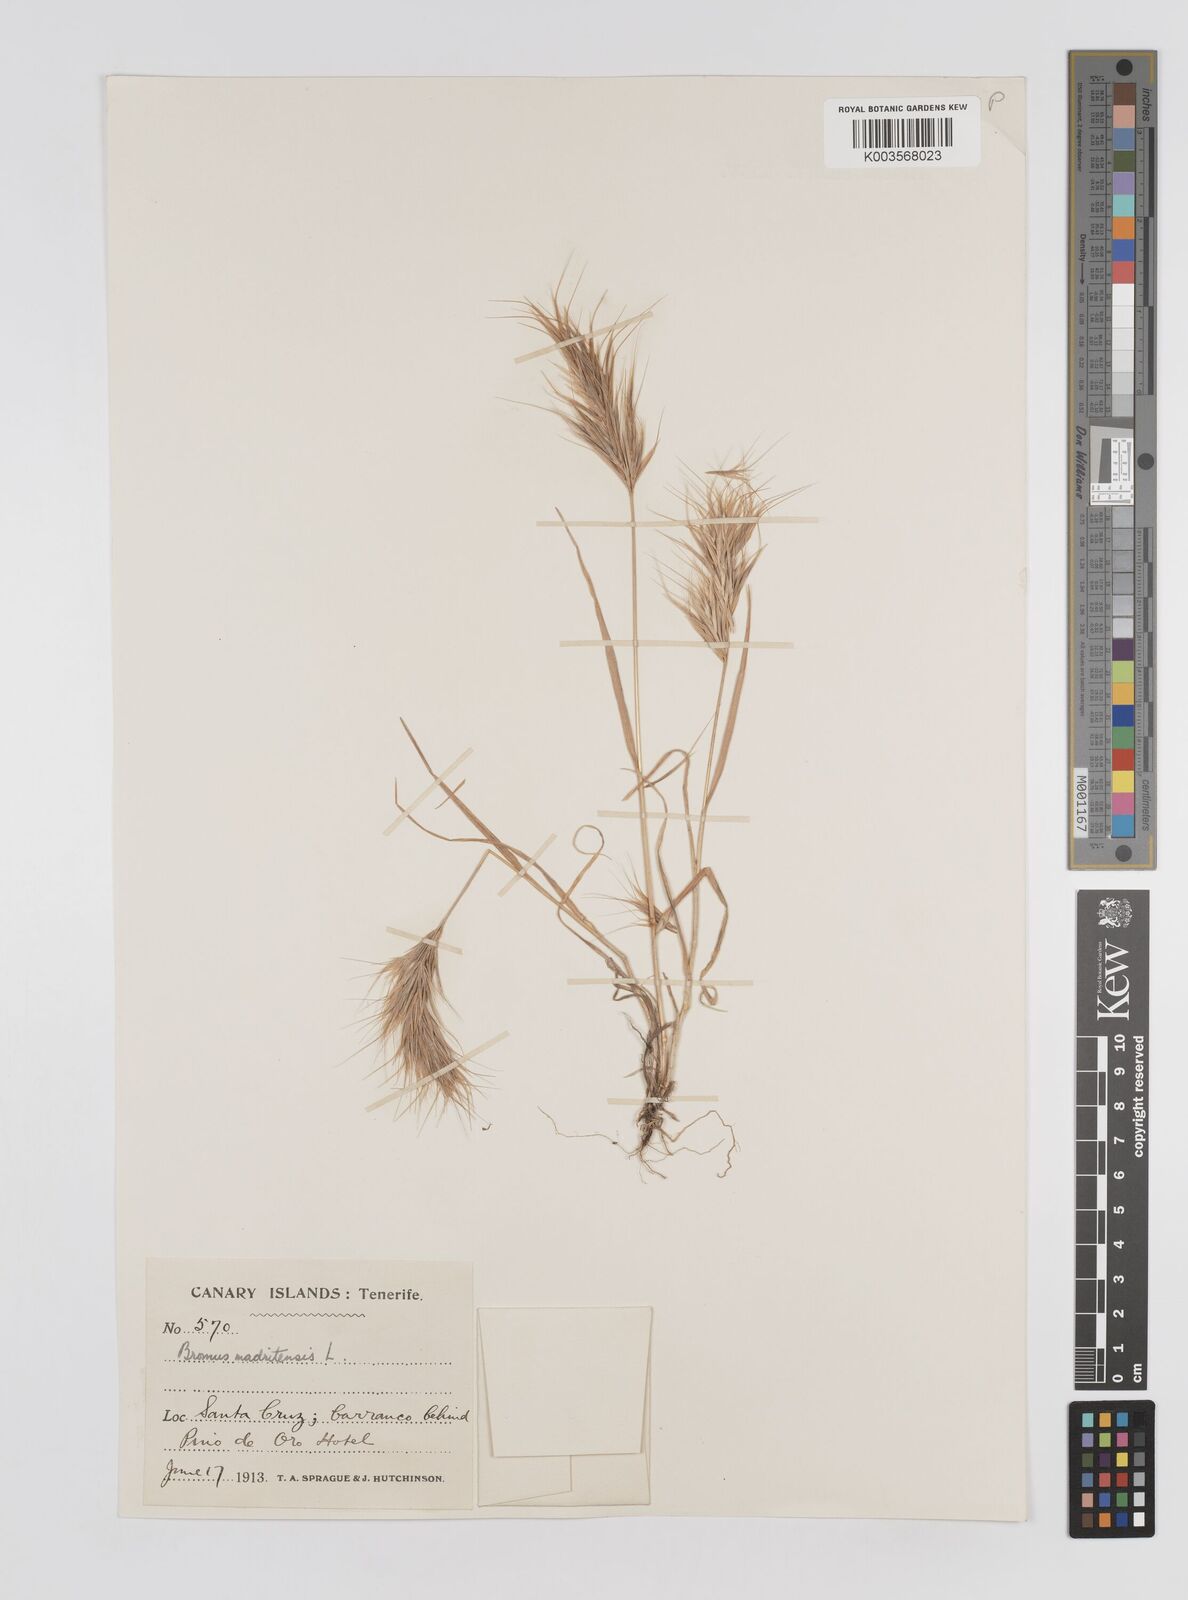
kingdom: Plantae
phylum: Tracheophyta
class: Liliopsida
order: Poales
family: Poaceae
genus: Bromus
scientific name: Bromus
